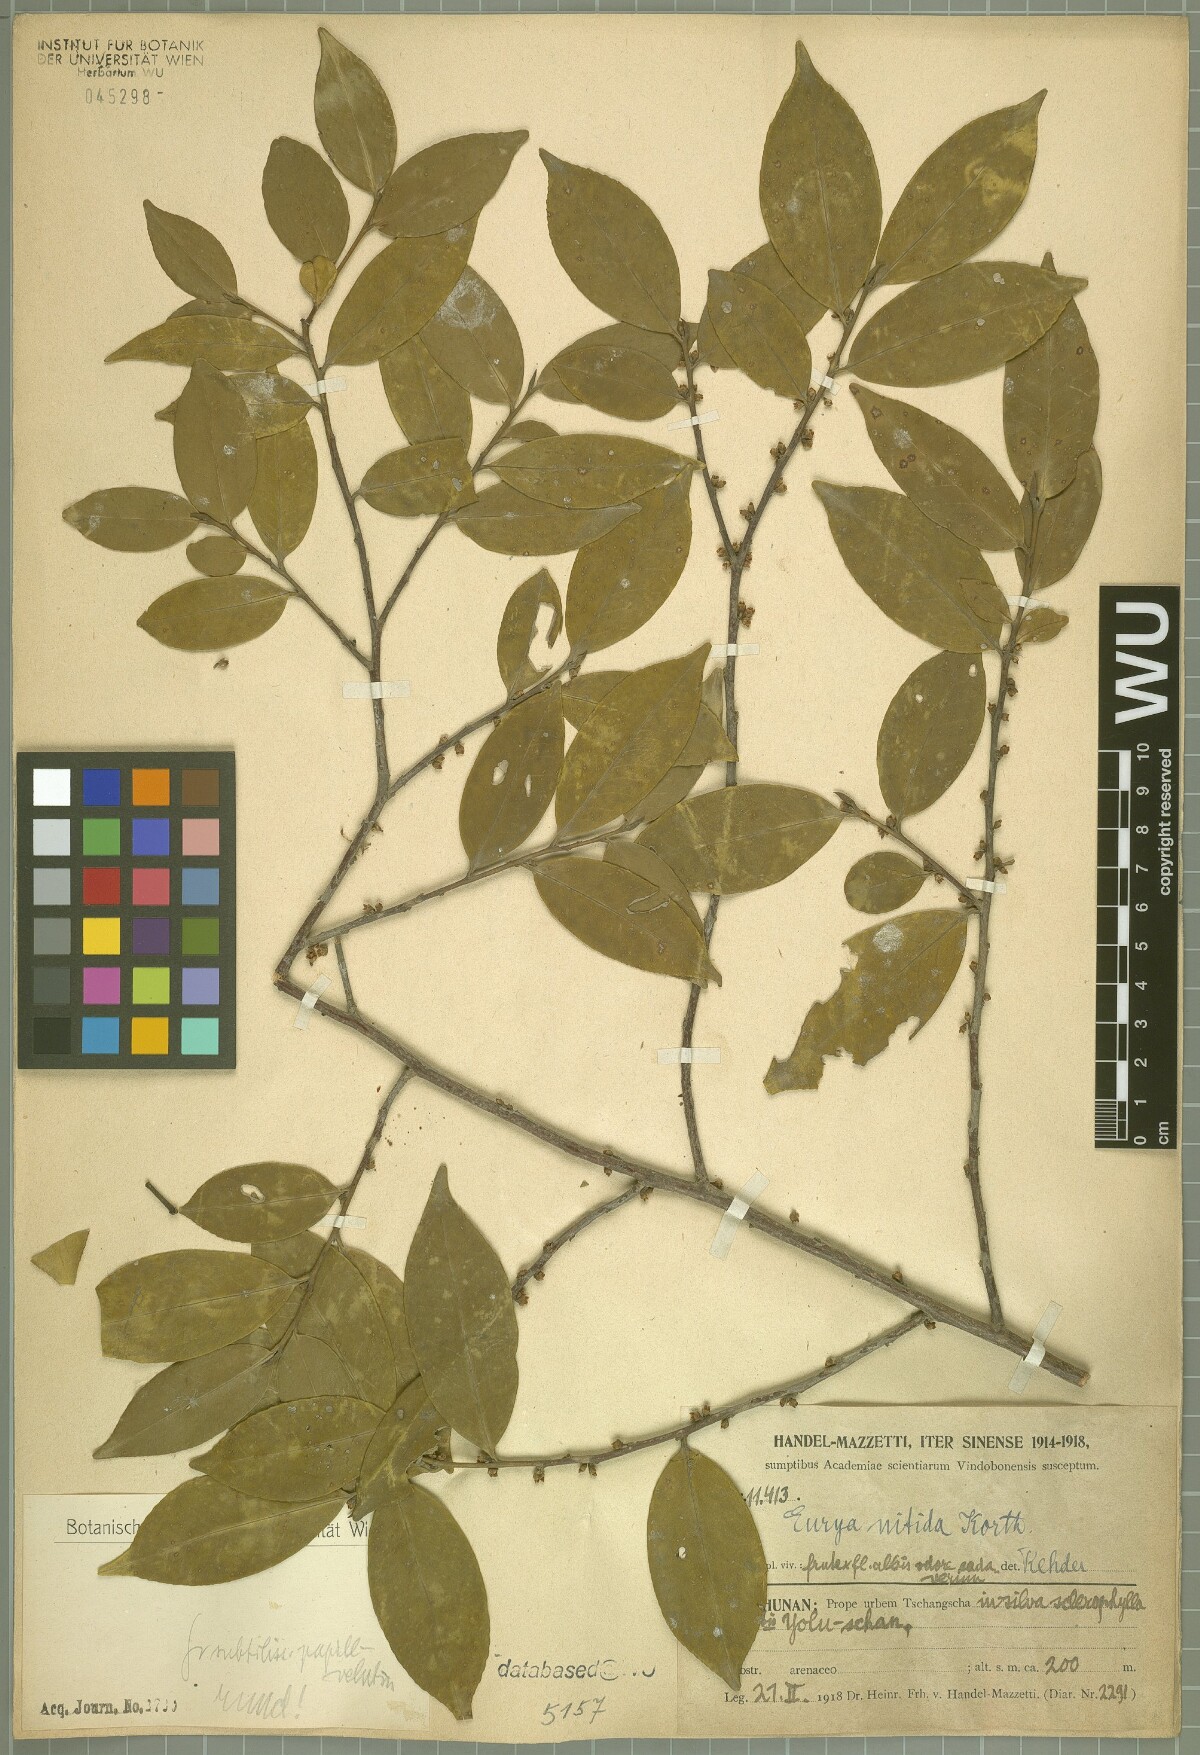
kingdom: Plantae
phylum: Tracheophyta
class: Magnoliopsida
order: Ericales
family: Pentaphylacaceae
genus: Eurya
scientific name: Eurya nitida
